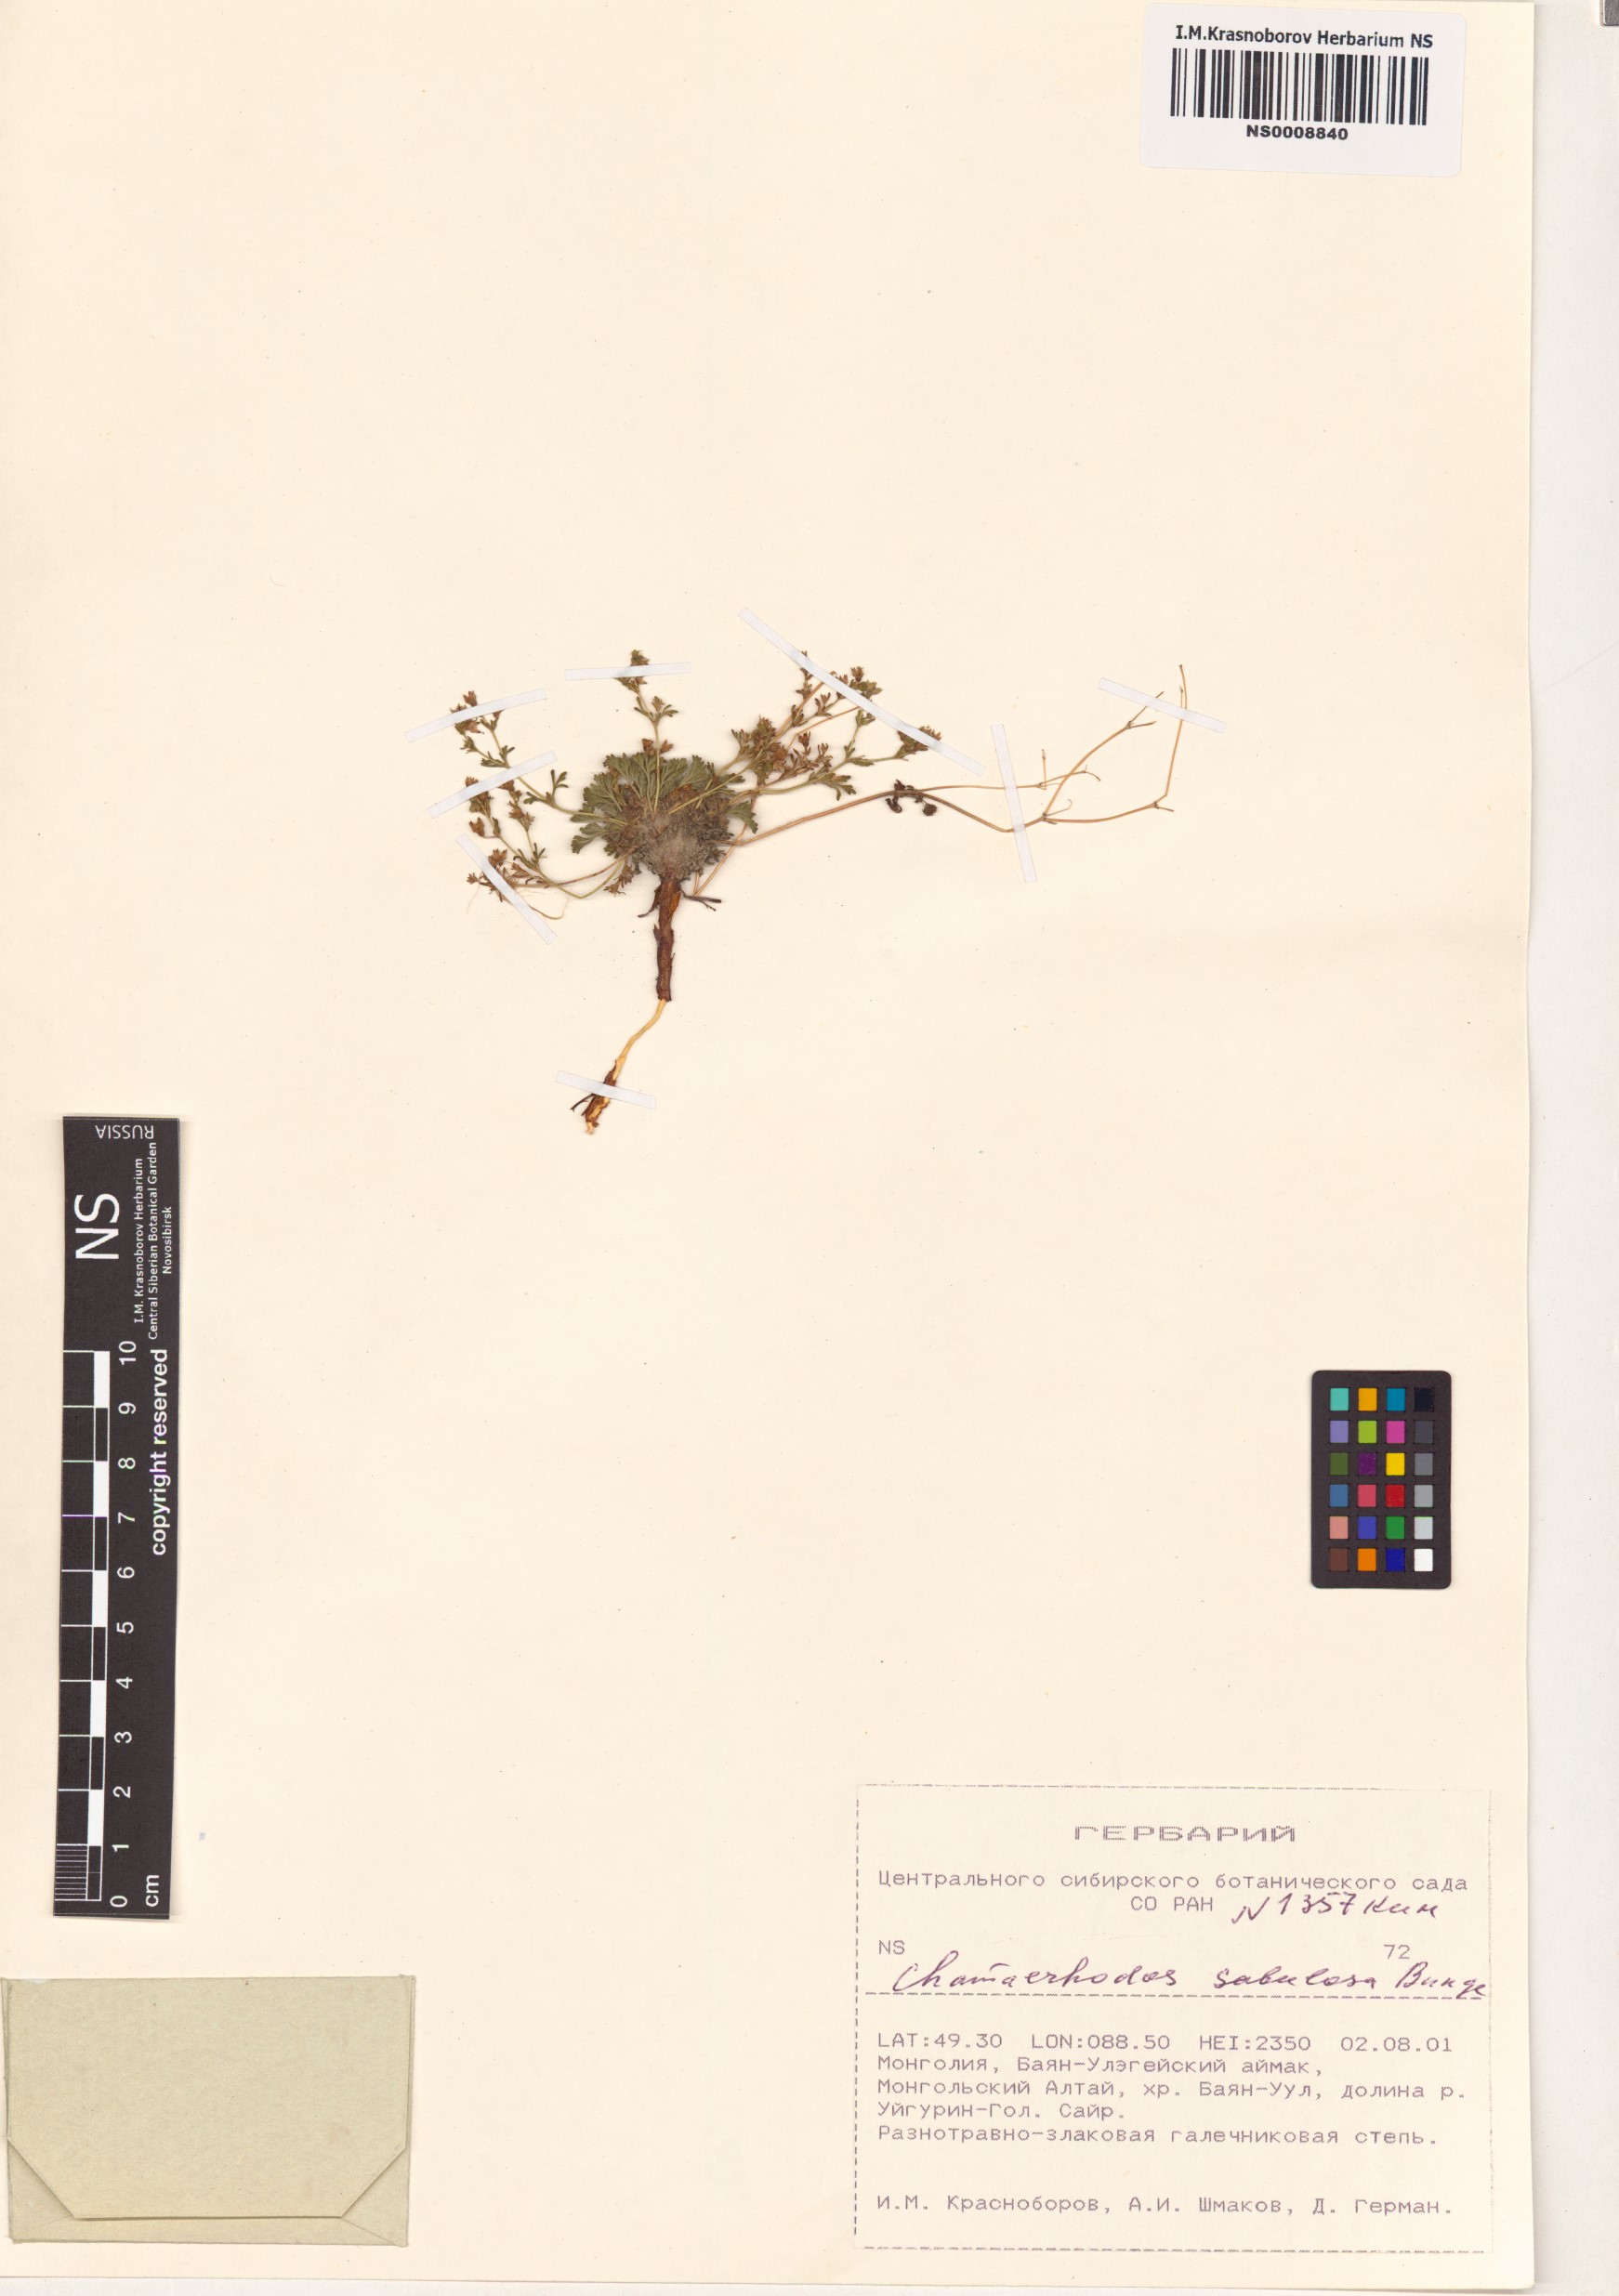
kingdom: Plantae
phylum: Tracheophyta
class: Magnoliopsida
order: Rosales
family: Rosaceae
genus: Chamaerhodos
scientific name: Chamaerhodos sabulosa
